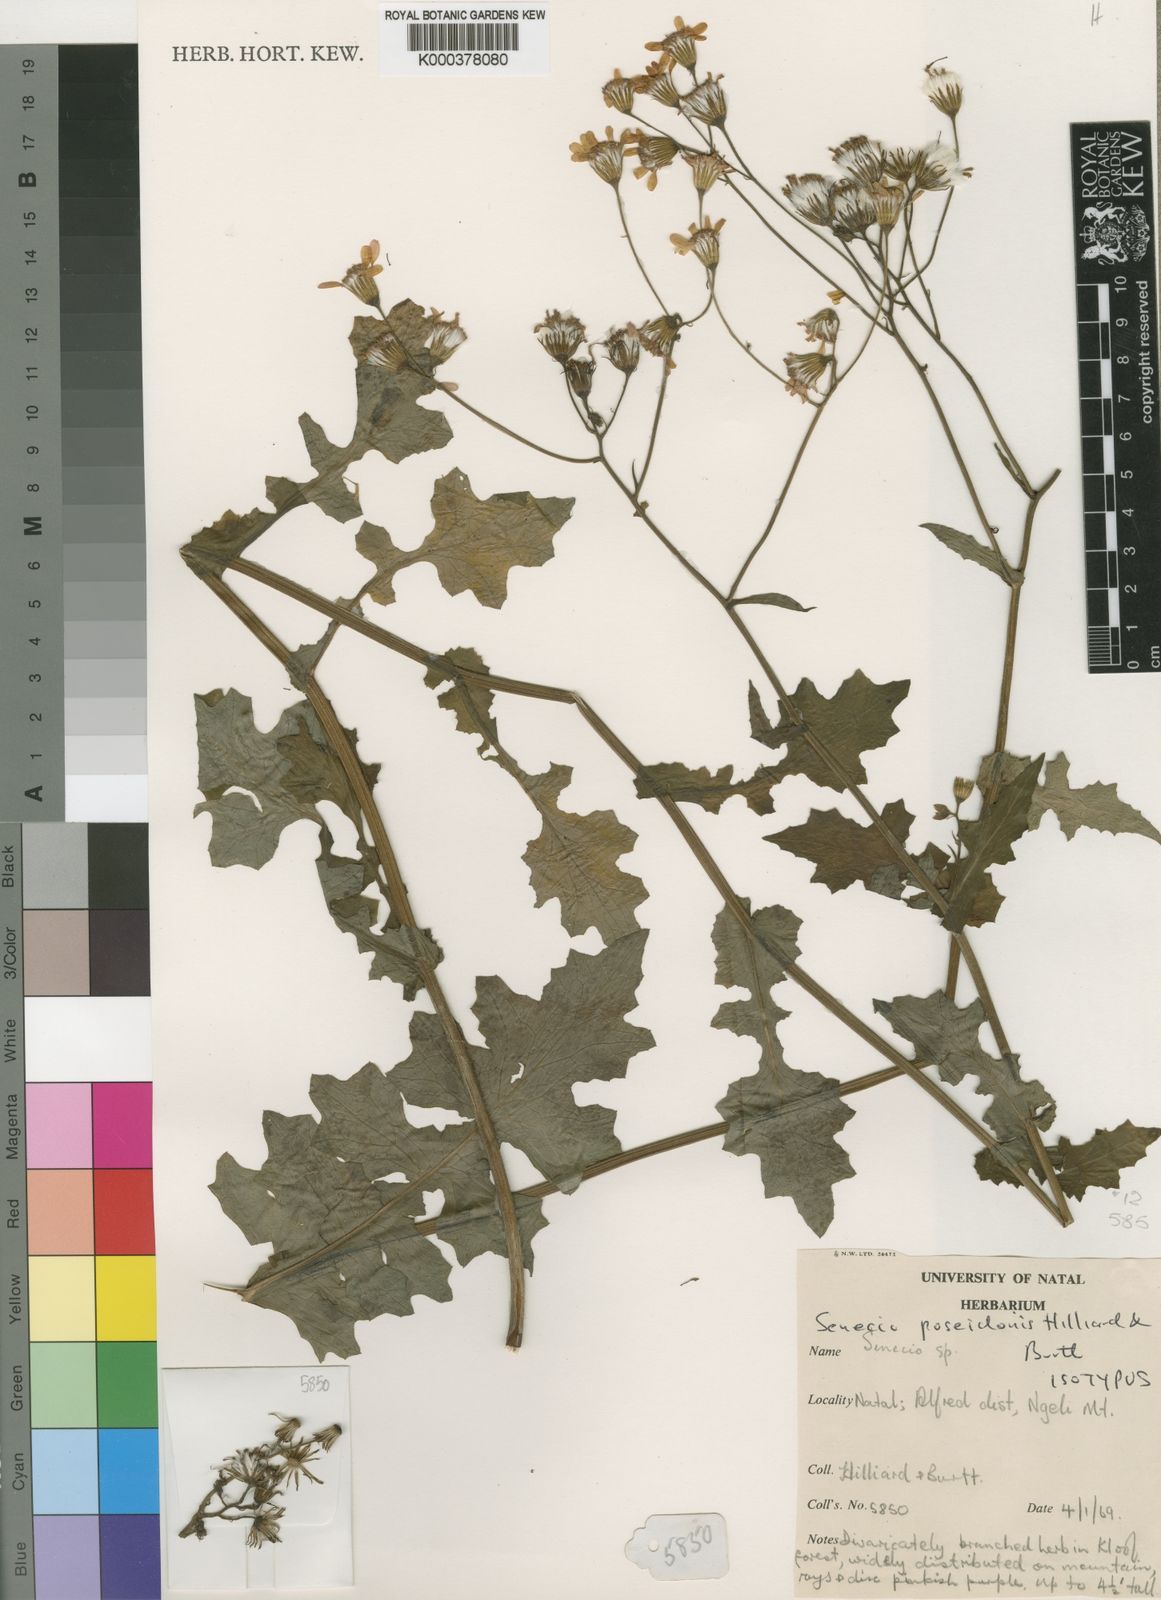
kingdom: Plantae
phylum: Tracheophyta
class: Magnoliopsida
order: Asterales
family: Asteraceae
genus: Senecio
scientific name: Senecio poseideonis
